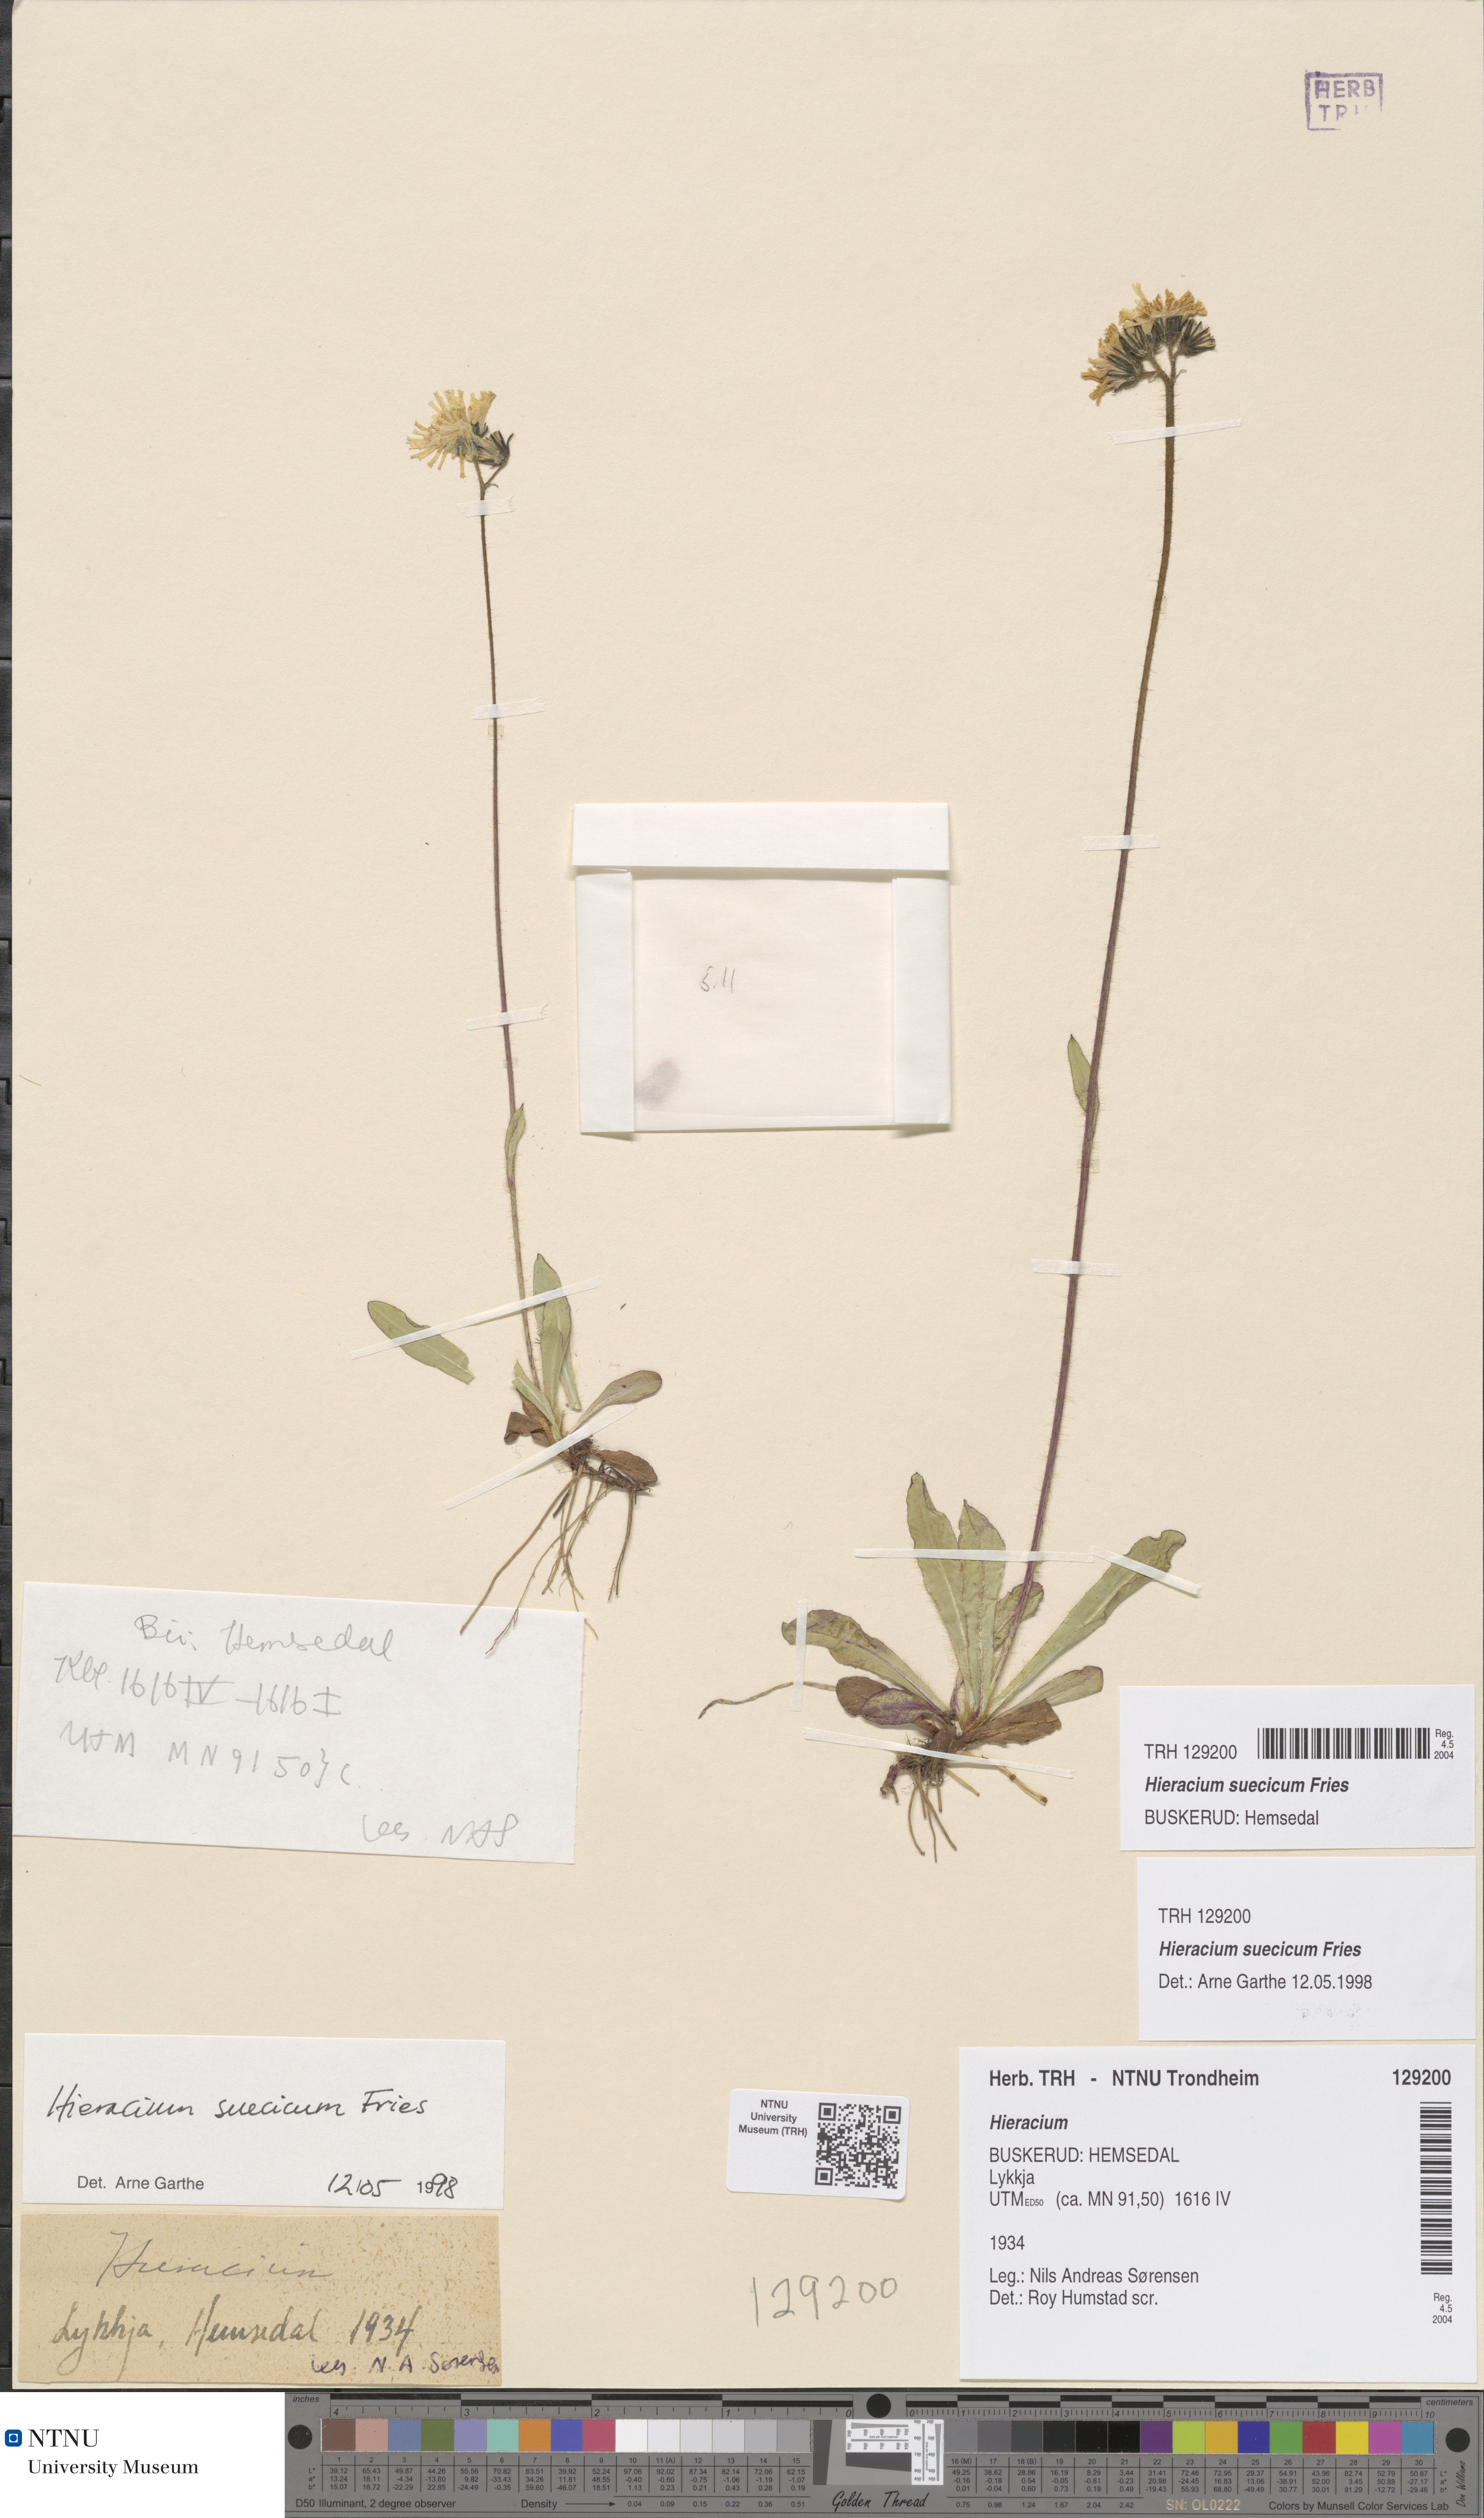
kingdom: Plantae
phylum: Tracheophyta
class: Magnoliopsida
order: Asterales
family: Asteraceae
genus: Pilosella
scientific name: Pilosella dubia
